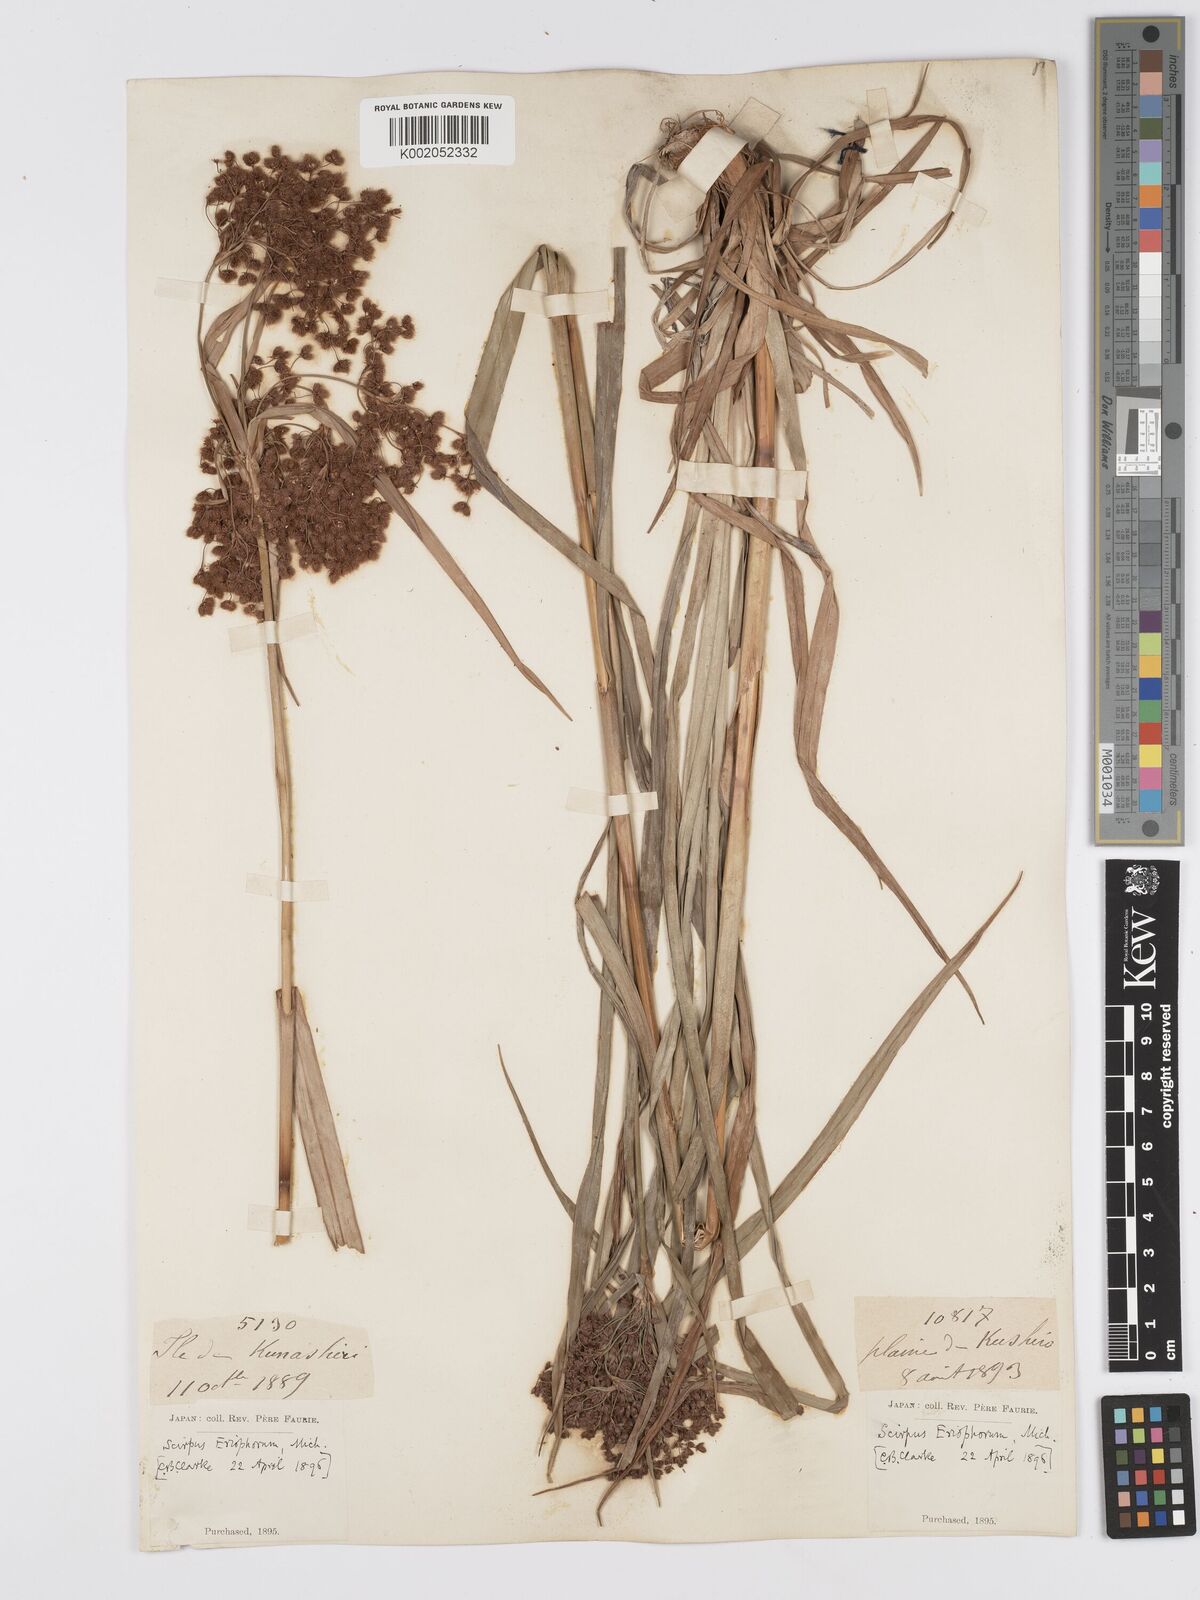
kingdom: Plantae
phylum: Tracheophyta
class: Liliopsida
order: Poales
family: Cyperaceae
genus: Scirpus
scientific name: Scirpus cyperinus
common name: Black-sheathed bulrush
